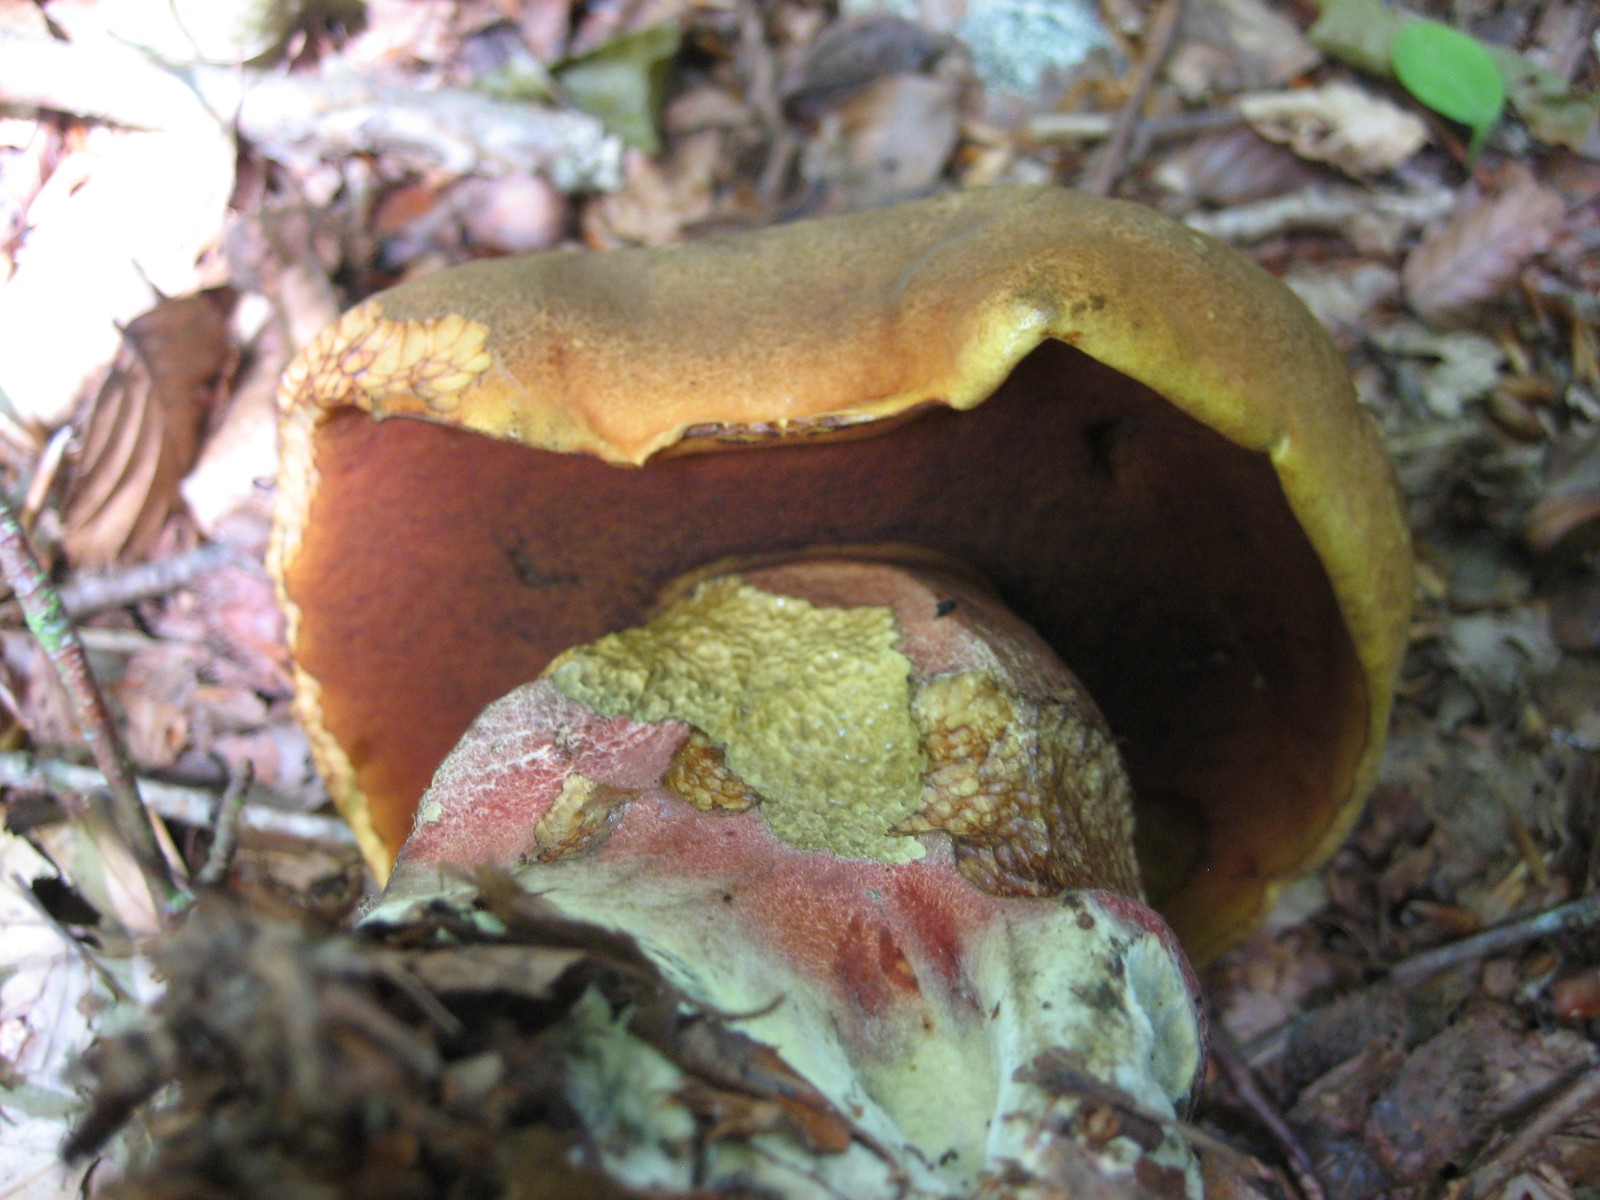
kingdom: Fungi
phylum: Basidiomycota
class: Agaricomycetes
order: Boletales
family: Boletaceae
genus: Neoboletus
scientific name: Neoboletus erythropus
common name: punktstokket indigorørhat
